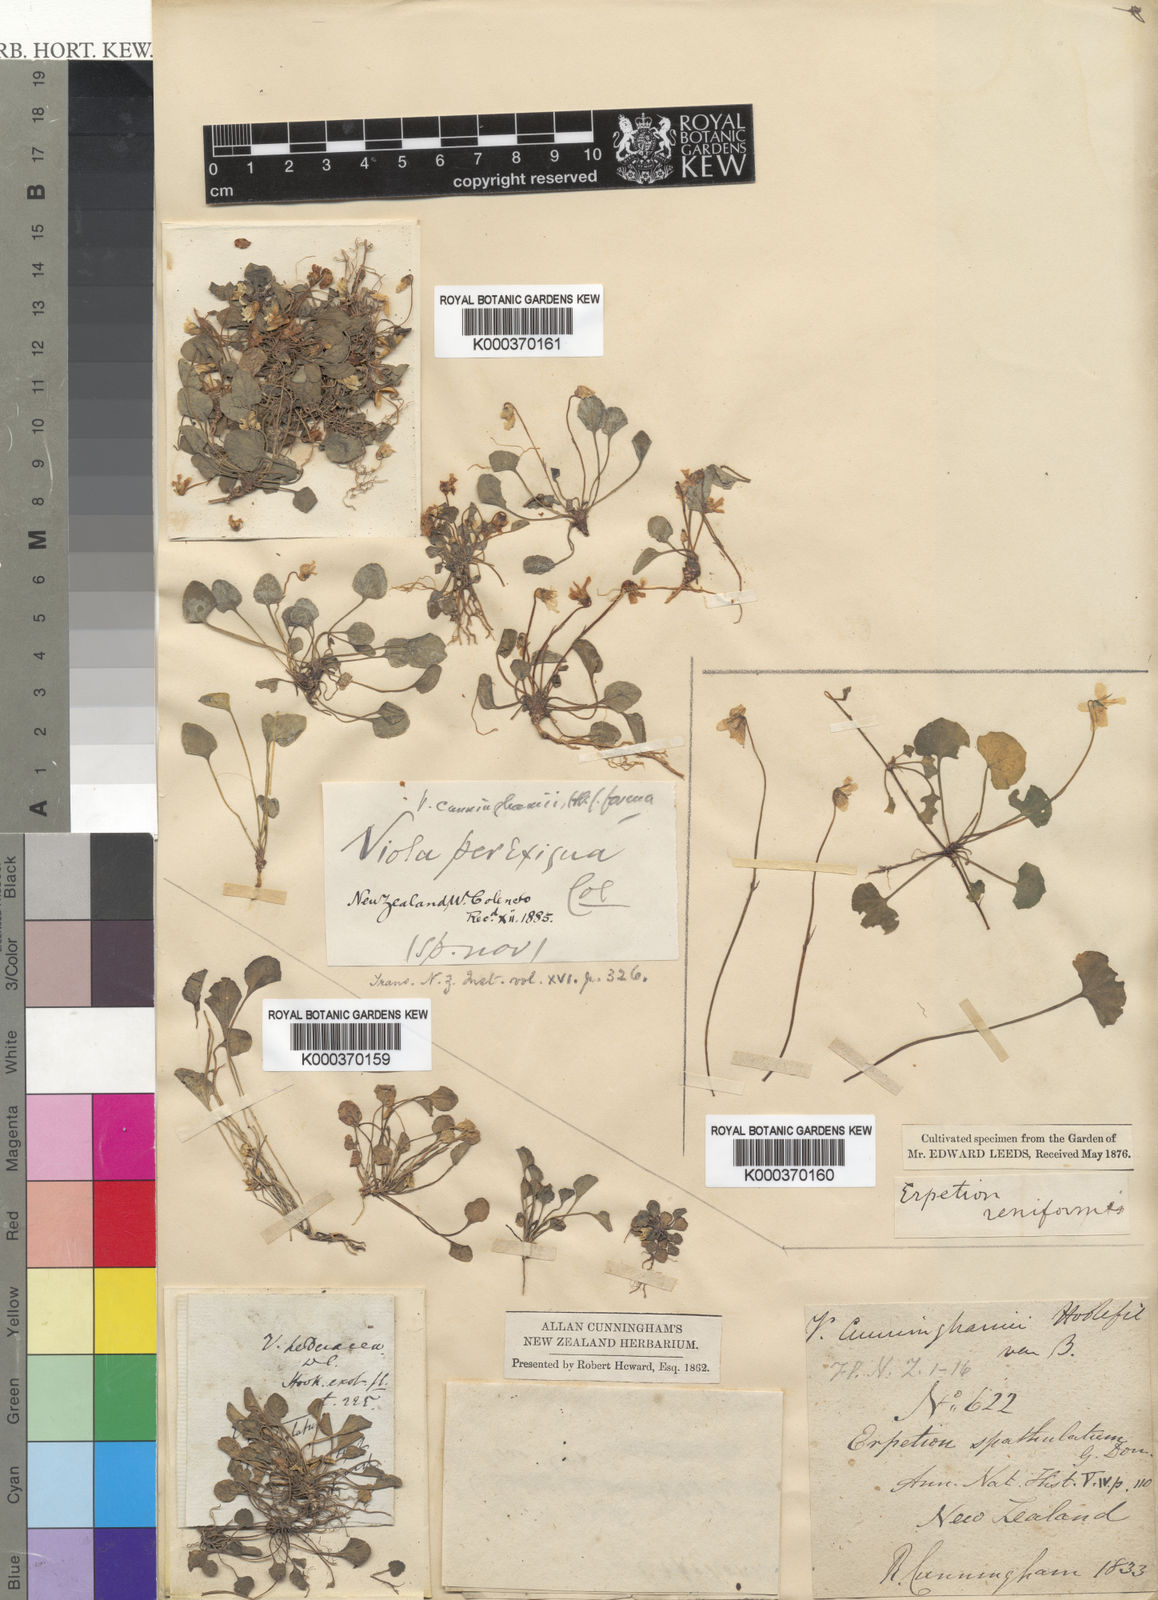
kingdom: Plantae
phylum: Tracheophyta
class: Magnoliopsida
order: Malpighiales
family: Violaceae
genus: Viola
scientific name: Viola cunninghamii
